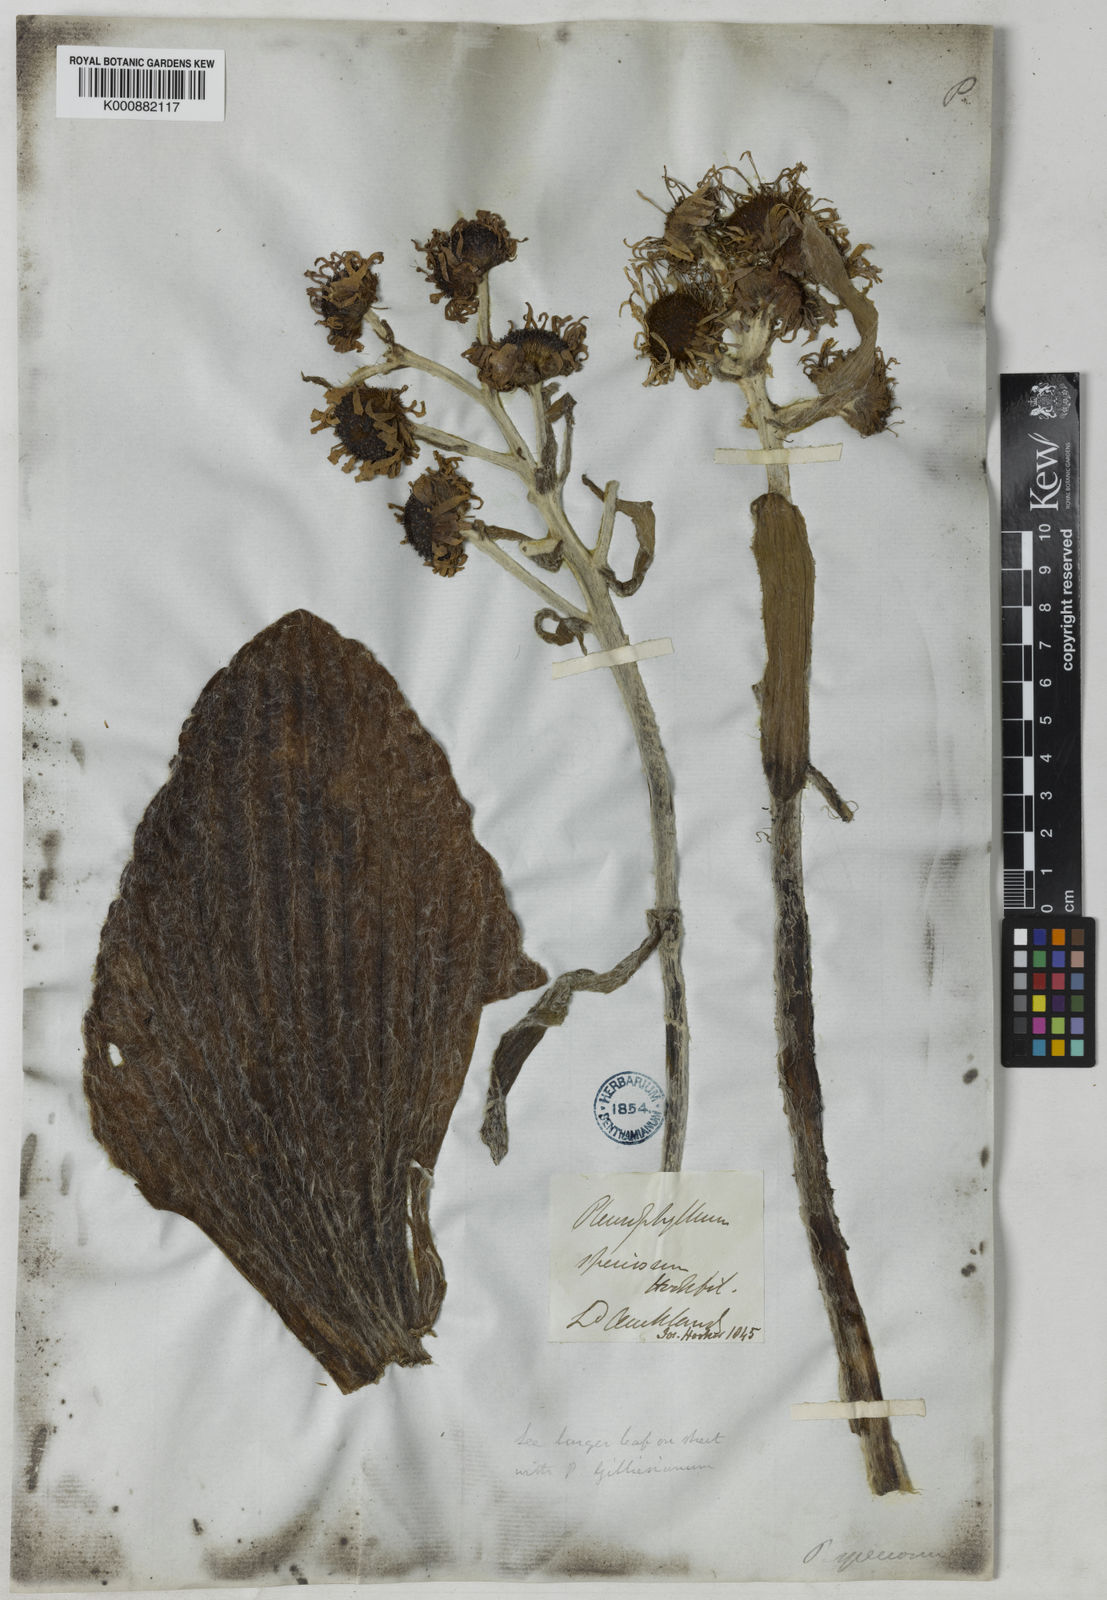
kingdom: Plantae
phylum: Tracheophyta
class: Magnoliopsida
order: Asterales
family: Asteraceae
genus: Pleurophyllum
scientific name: Pleurophyllum speciosum
